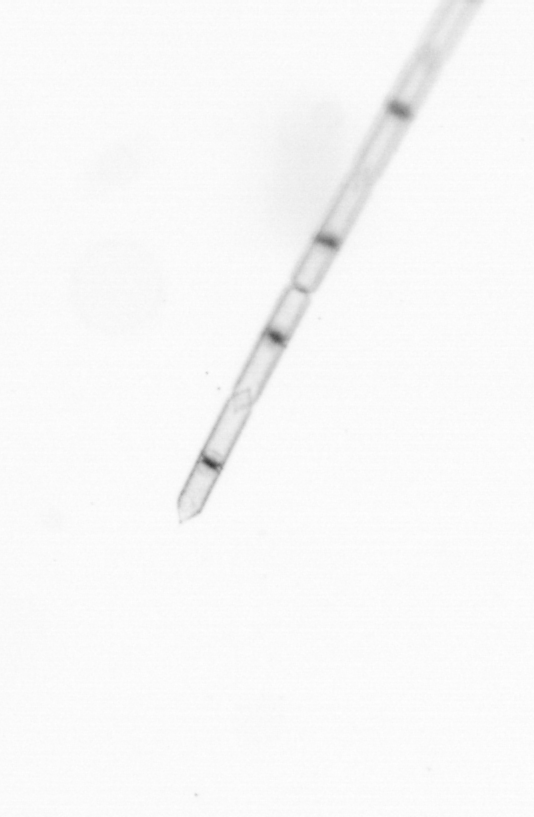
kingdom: Chromista
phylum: Ochrophyta
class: Bacillariophyceae
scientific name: Bacillariophyceae
